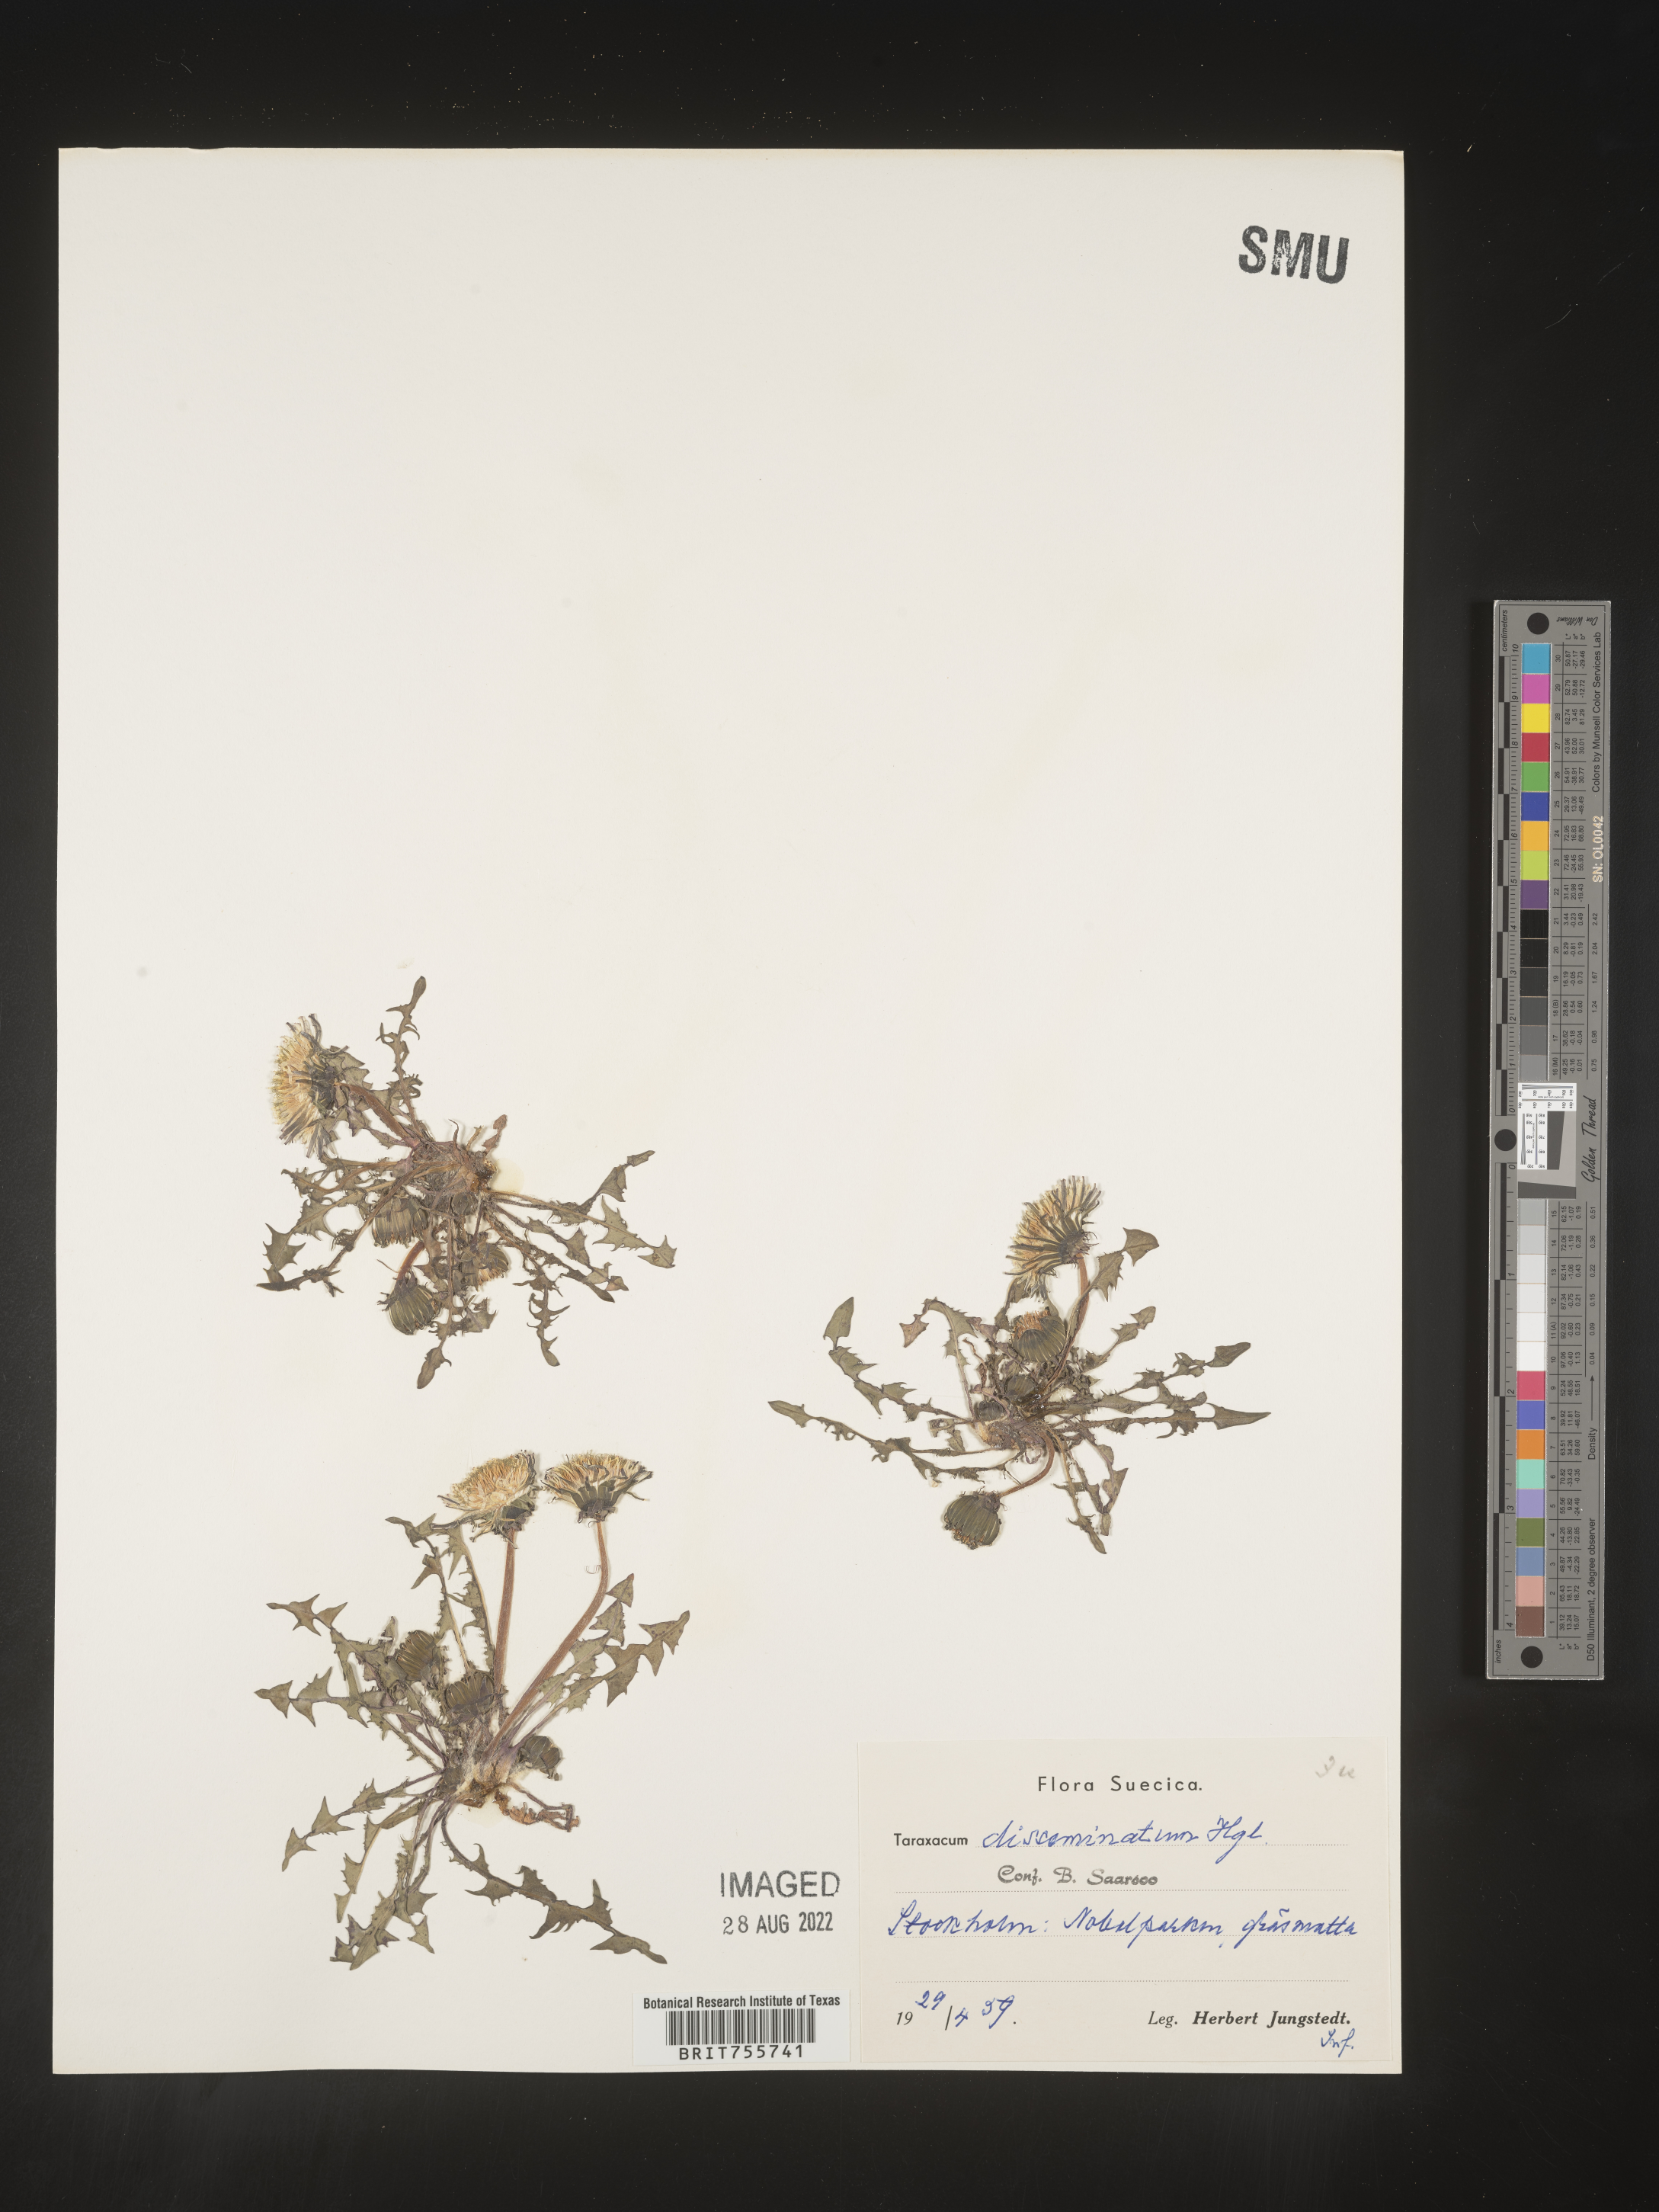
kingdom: Plantae
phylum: Tracheophyta
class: Magnoliopsida
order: Asterales
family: Asteraceae
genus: Taraxacum
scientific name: Taraxacum
